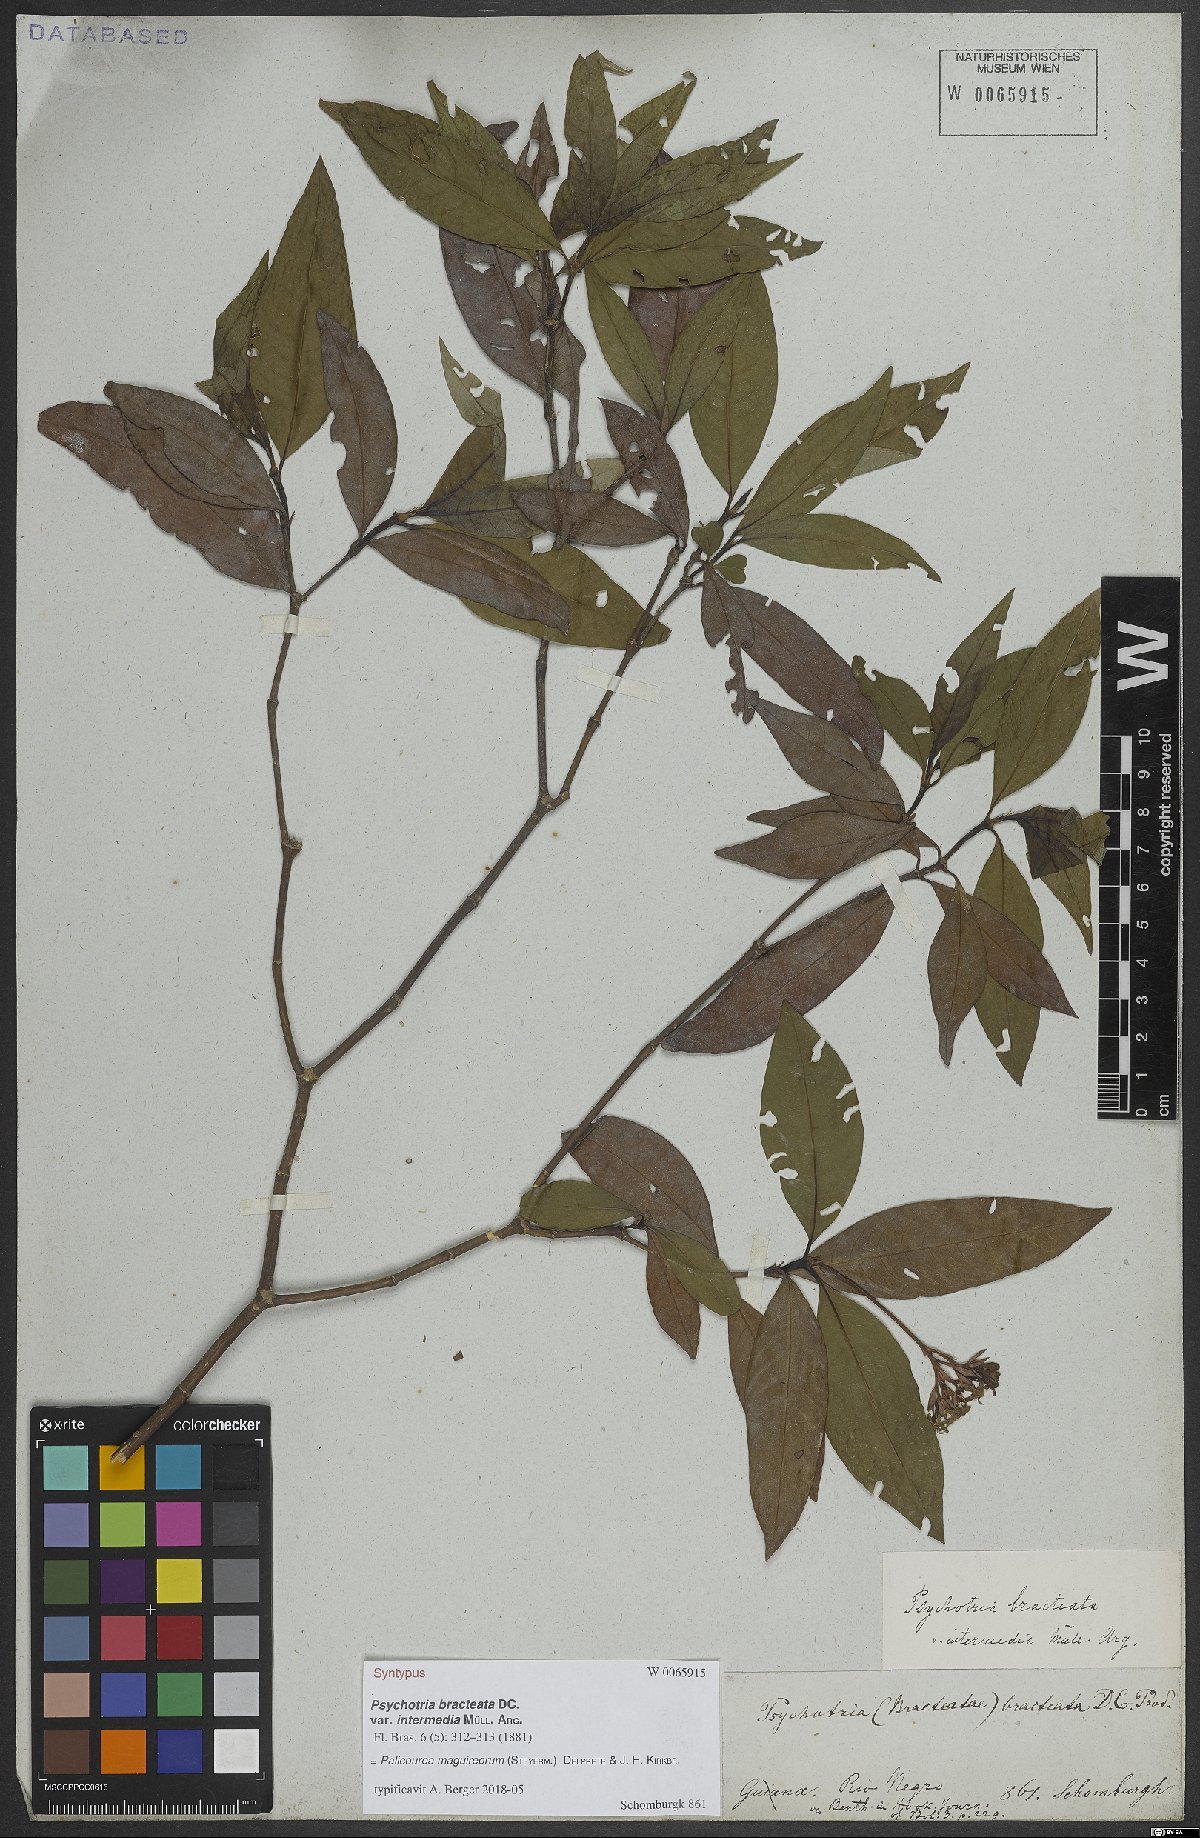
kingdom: Plantae
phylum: Tracheophyta
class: Magnoliopsida
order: Gentianales
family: Rubiaceae
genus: Palicourea
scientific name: Palicourea maguireorum
